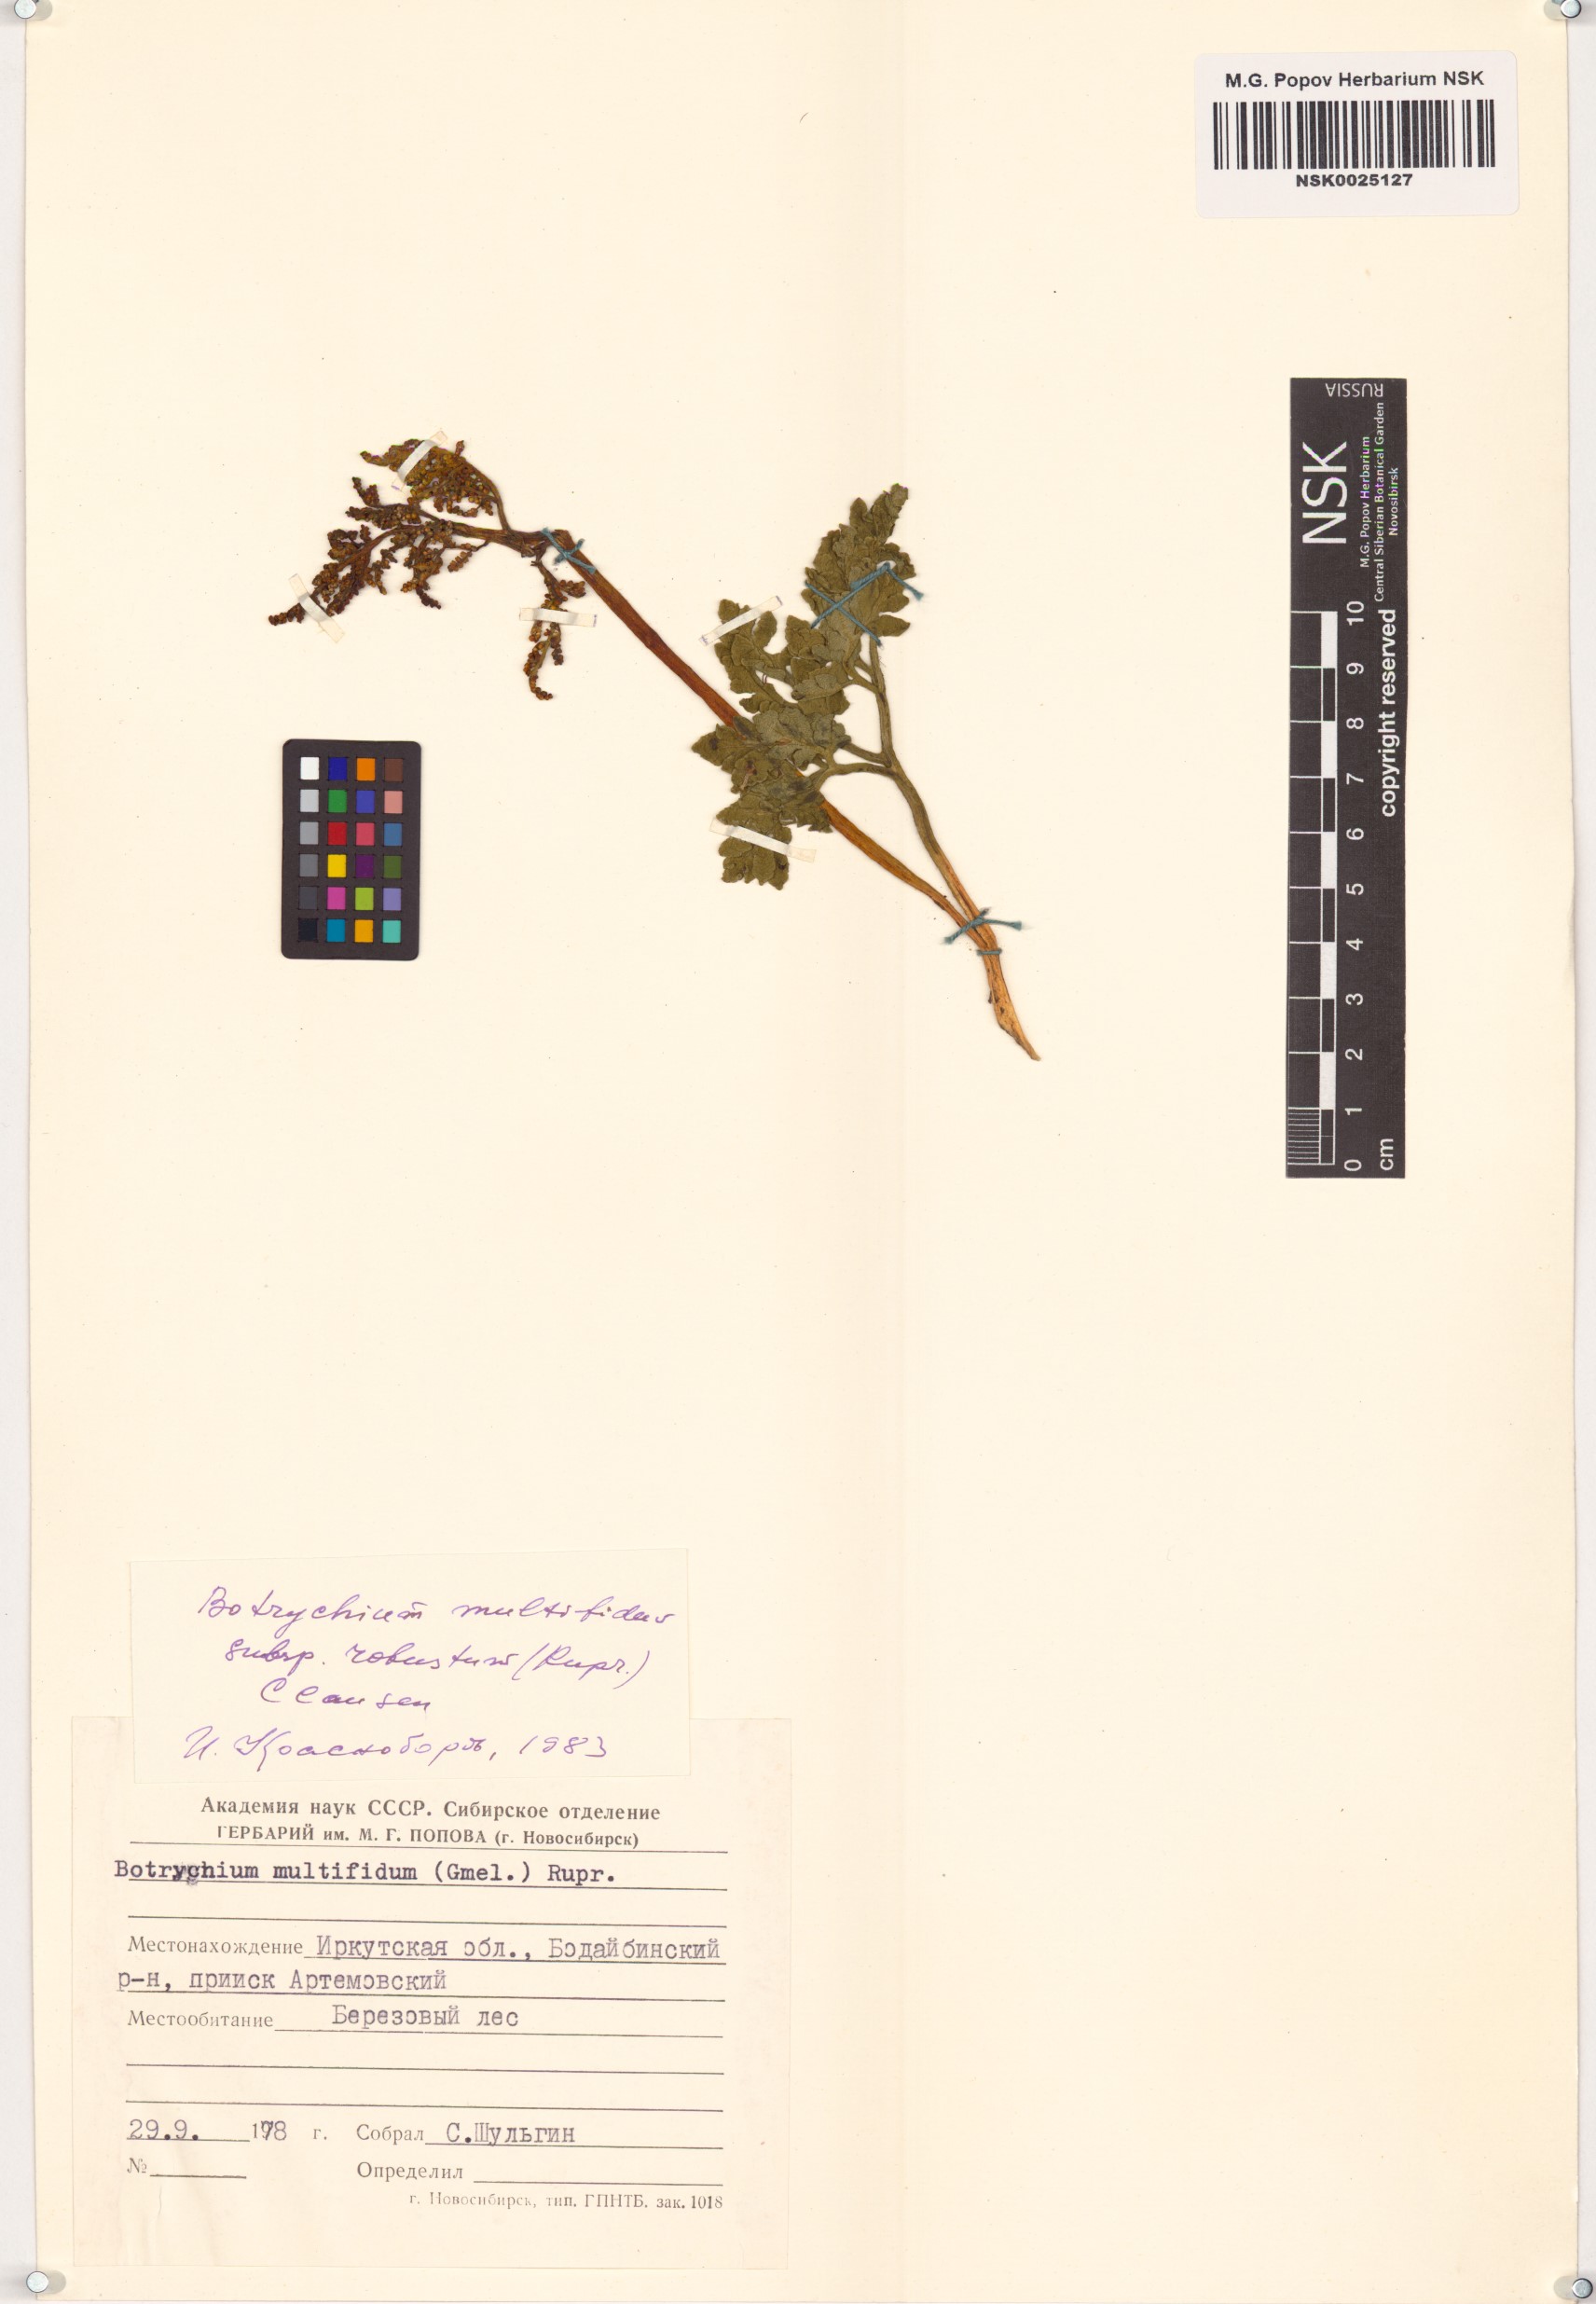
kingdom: Plantae
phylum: Tracheophyta
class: Polypodiopsida
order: Ophioglossales
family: Ophioglossaceae
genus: Sceptridium
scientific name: Sceptridium multifidum
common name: Leathery grape fern
